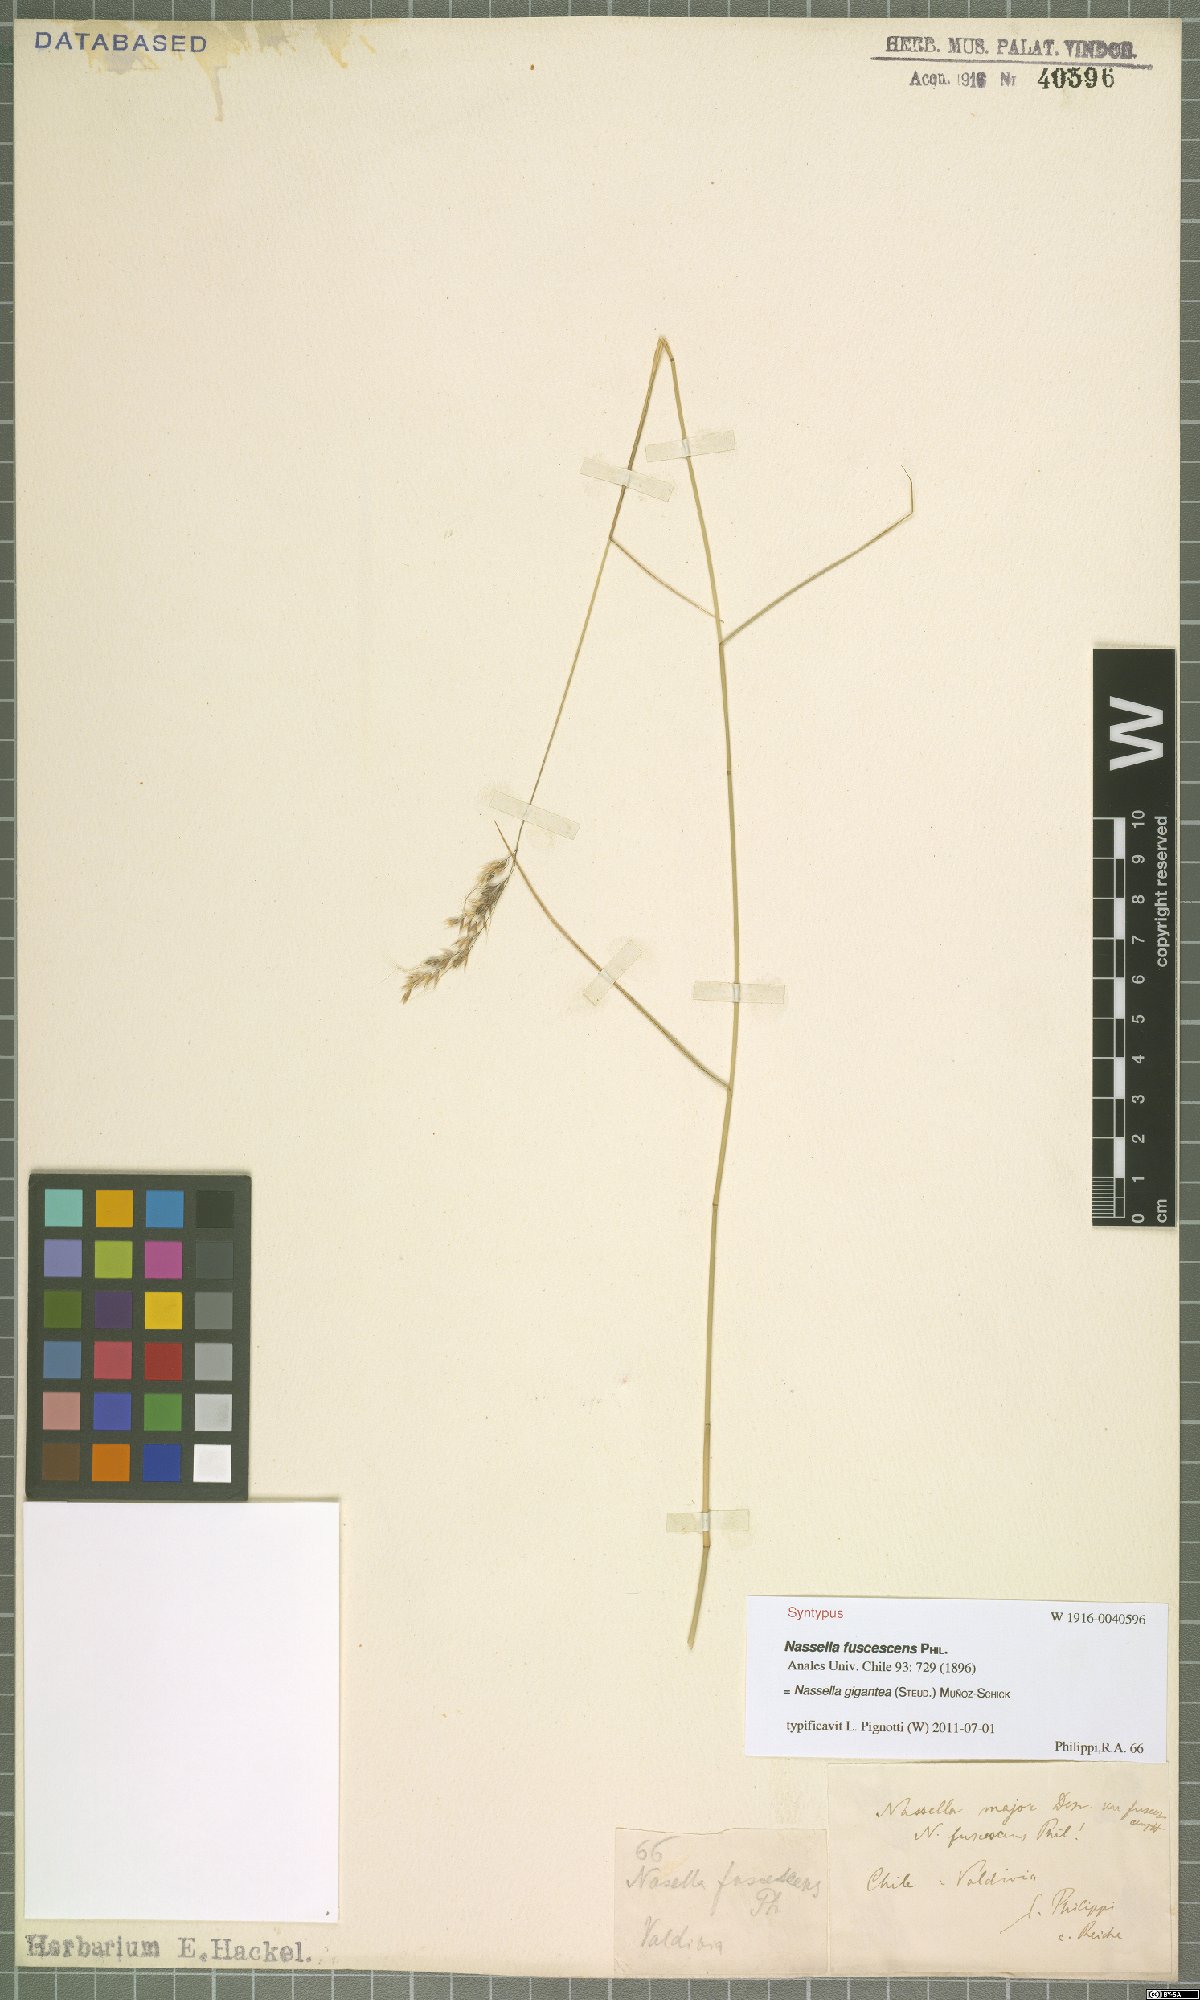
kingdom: Plantae
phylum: Tracheophyta
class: Liliopsida
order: Poales
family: Poaceae
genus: Nassella
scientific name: Nassella gigantea
